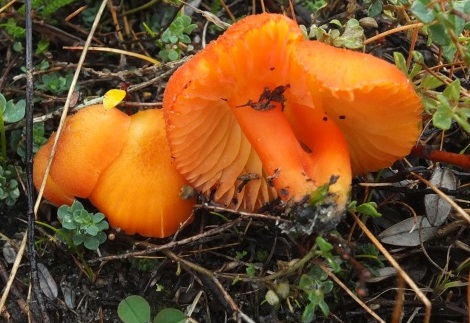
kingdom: Fungi
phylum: Basidiomycota
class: Agaricomycetes
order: Agaricales
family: Hygrophoraceae
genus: Hygrocybe
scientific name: Hygrocybe substrangulata
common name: kær-vokshat
